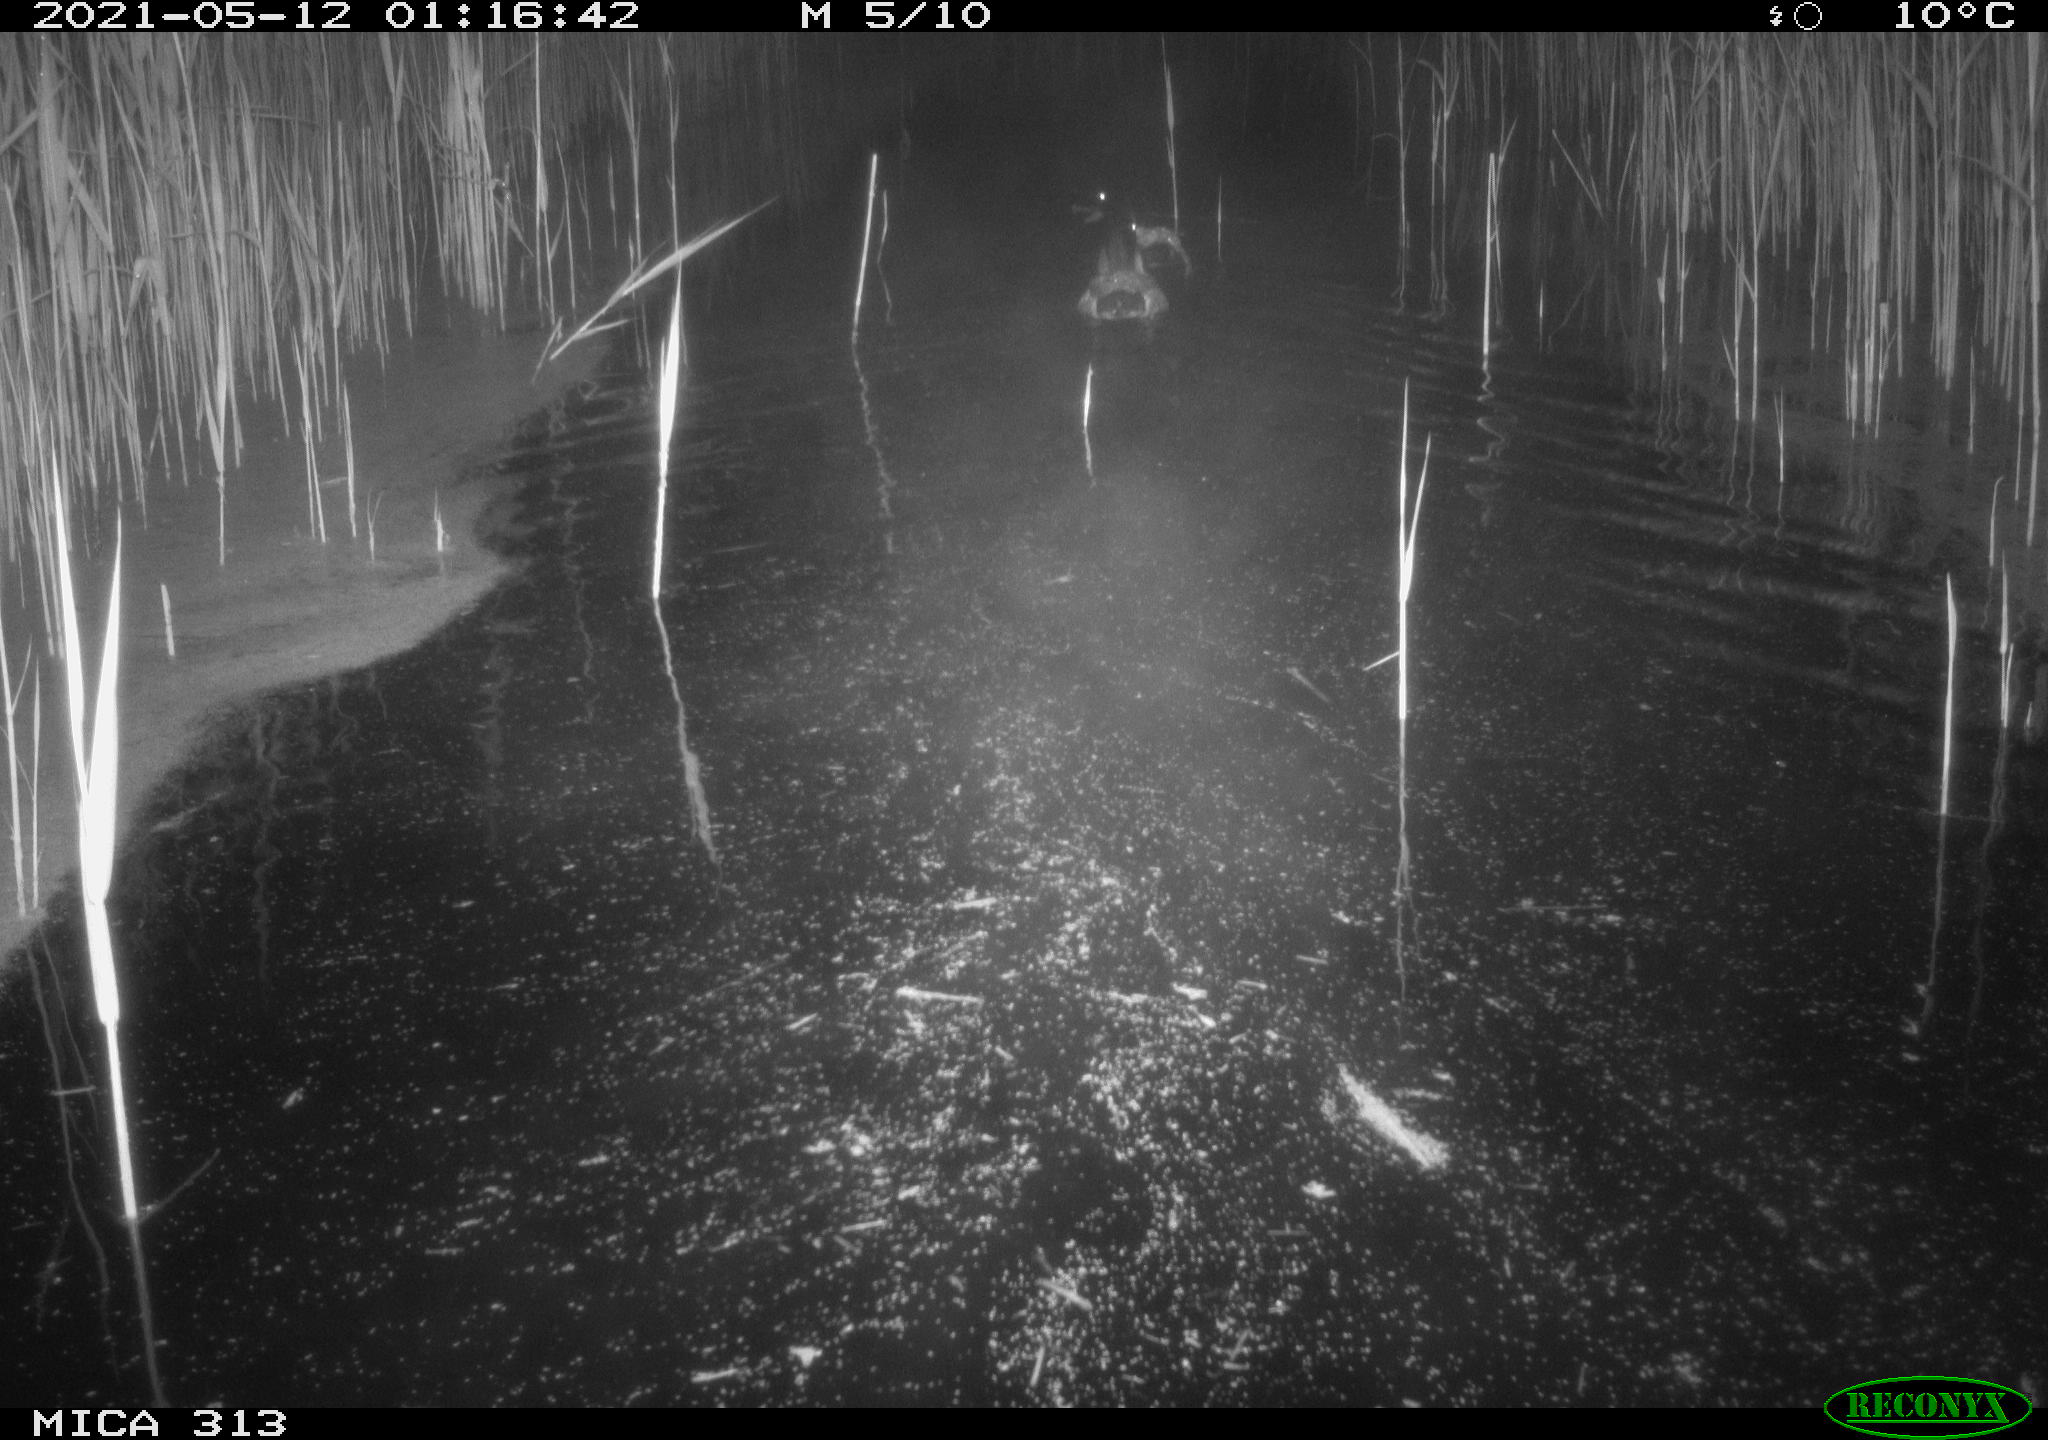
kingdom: Animalia
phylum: Chordata
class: Aves
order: Anseriformes
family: Anatidae
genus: Anas
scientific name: Anas platyrhynchos
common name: Mallard
